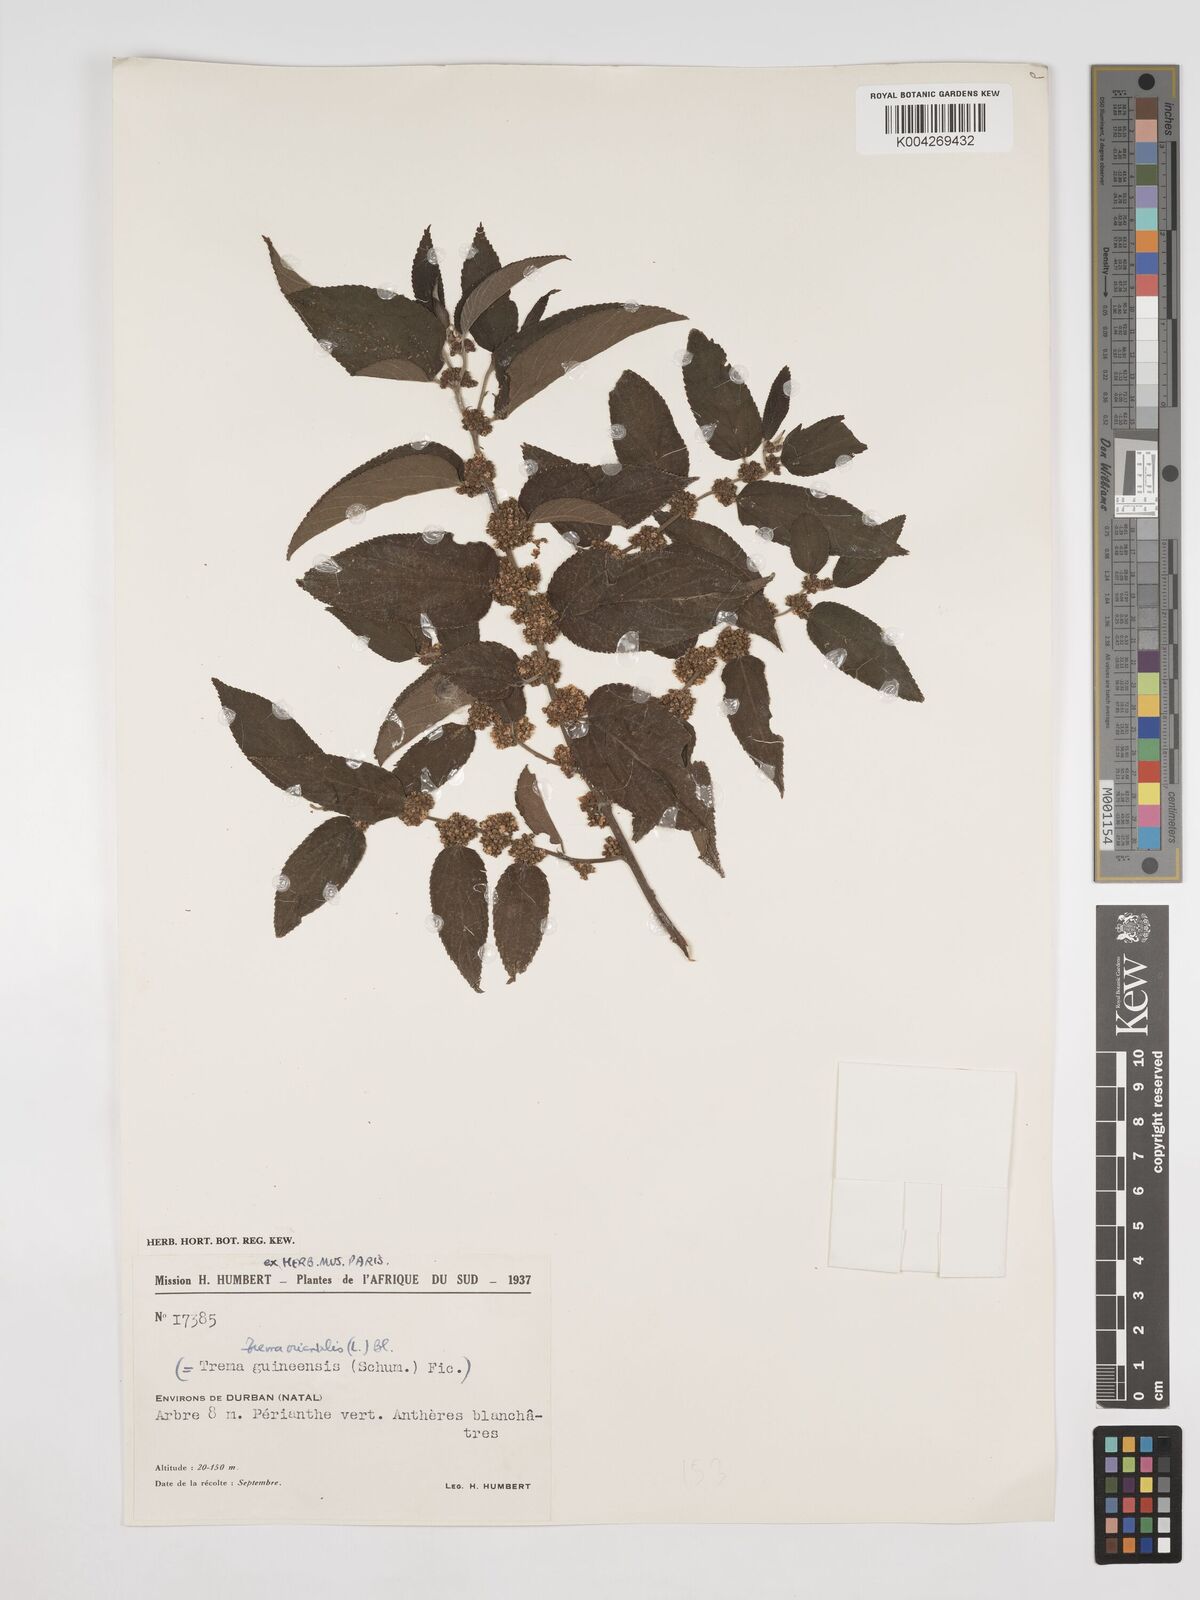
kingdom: Plantae
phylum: Tracheophyta
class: Magnoliopsida
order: Rosales
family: Cannabaceae
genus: Trema
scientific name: Trema orientale
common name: Indian charcoal tree
